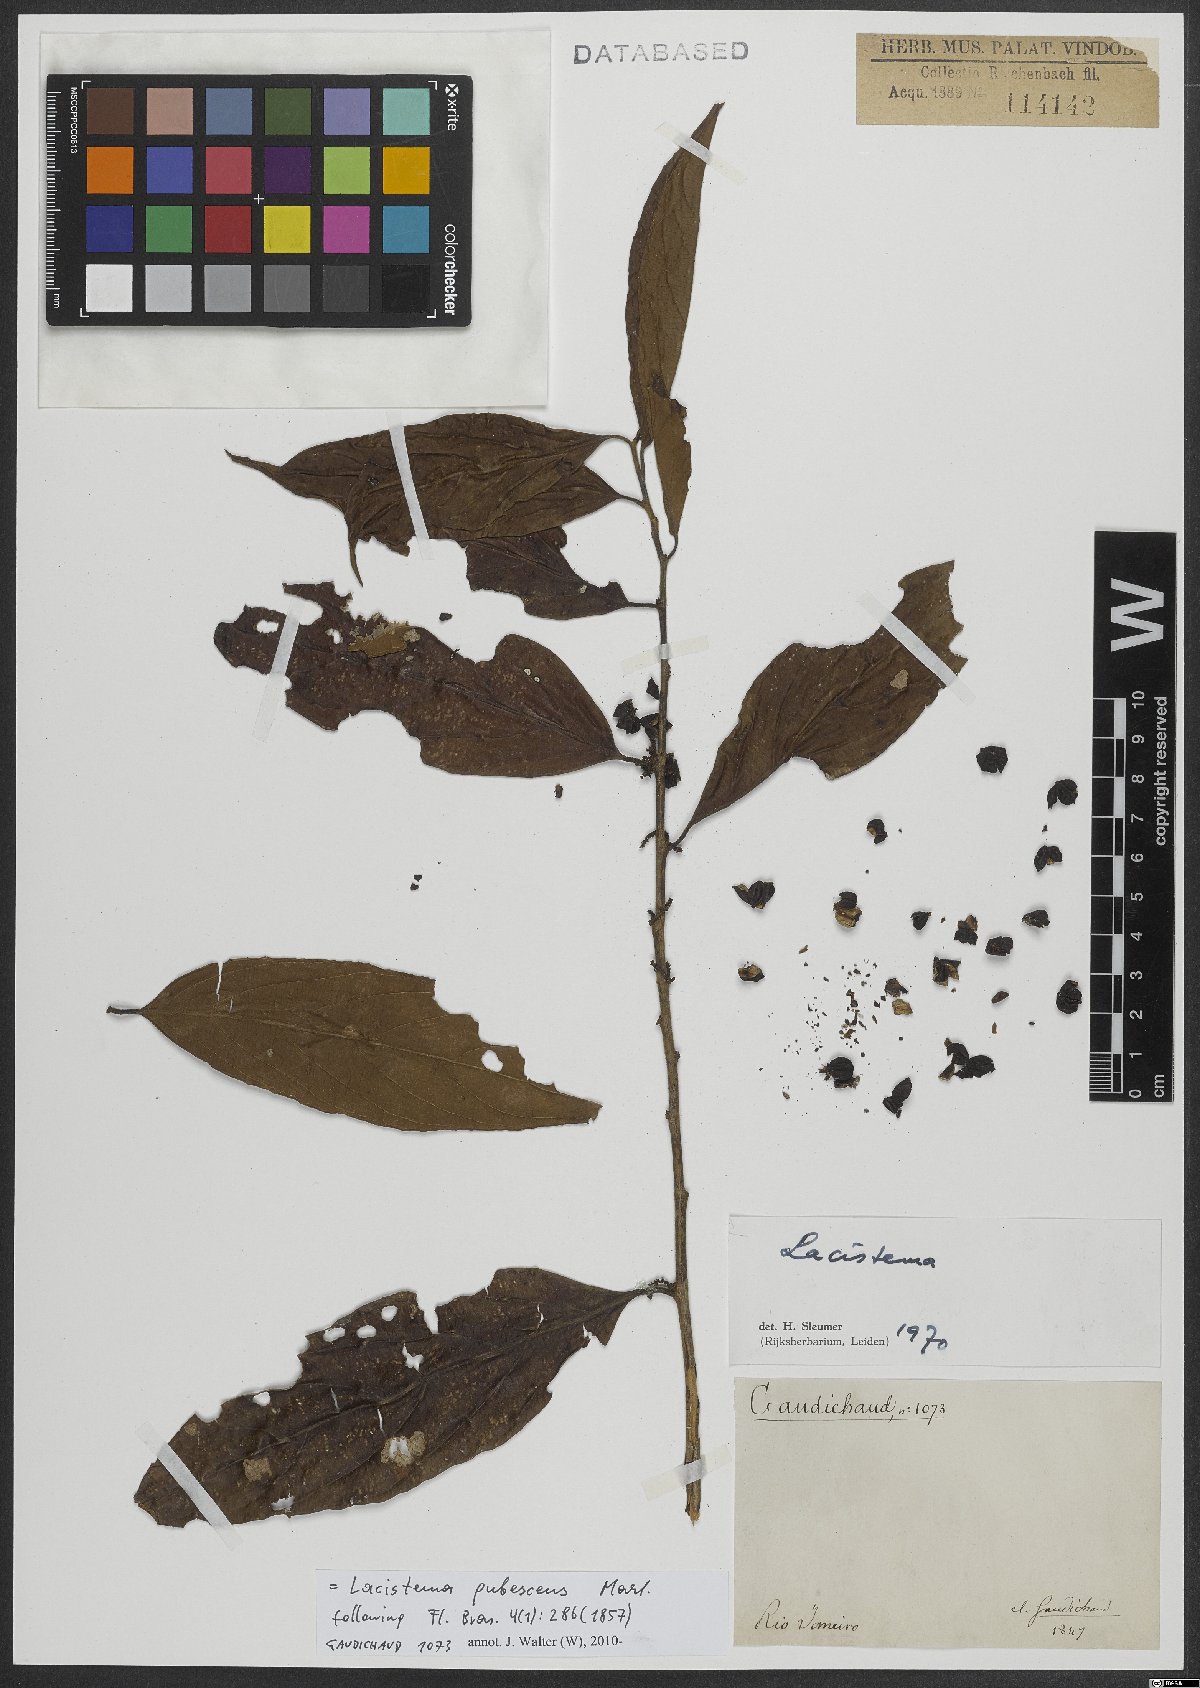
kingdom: Plantae
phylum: Tracheophyta
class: Magnoliopsida
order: Malpighiales
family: Lacistemataceae
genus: Lacistema
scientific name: Lacistema pubescens
